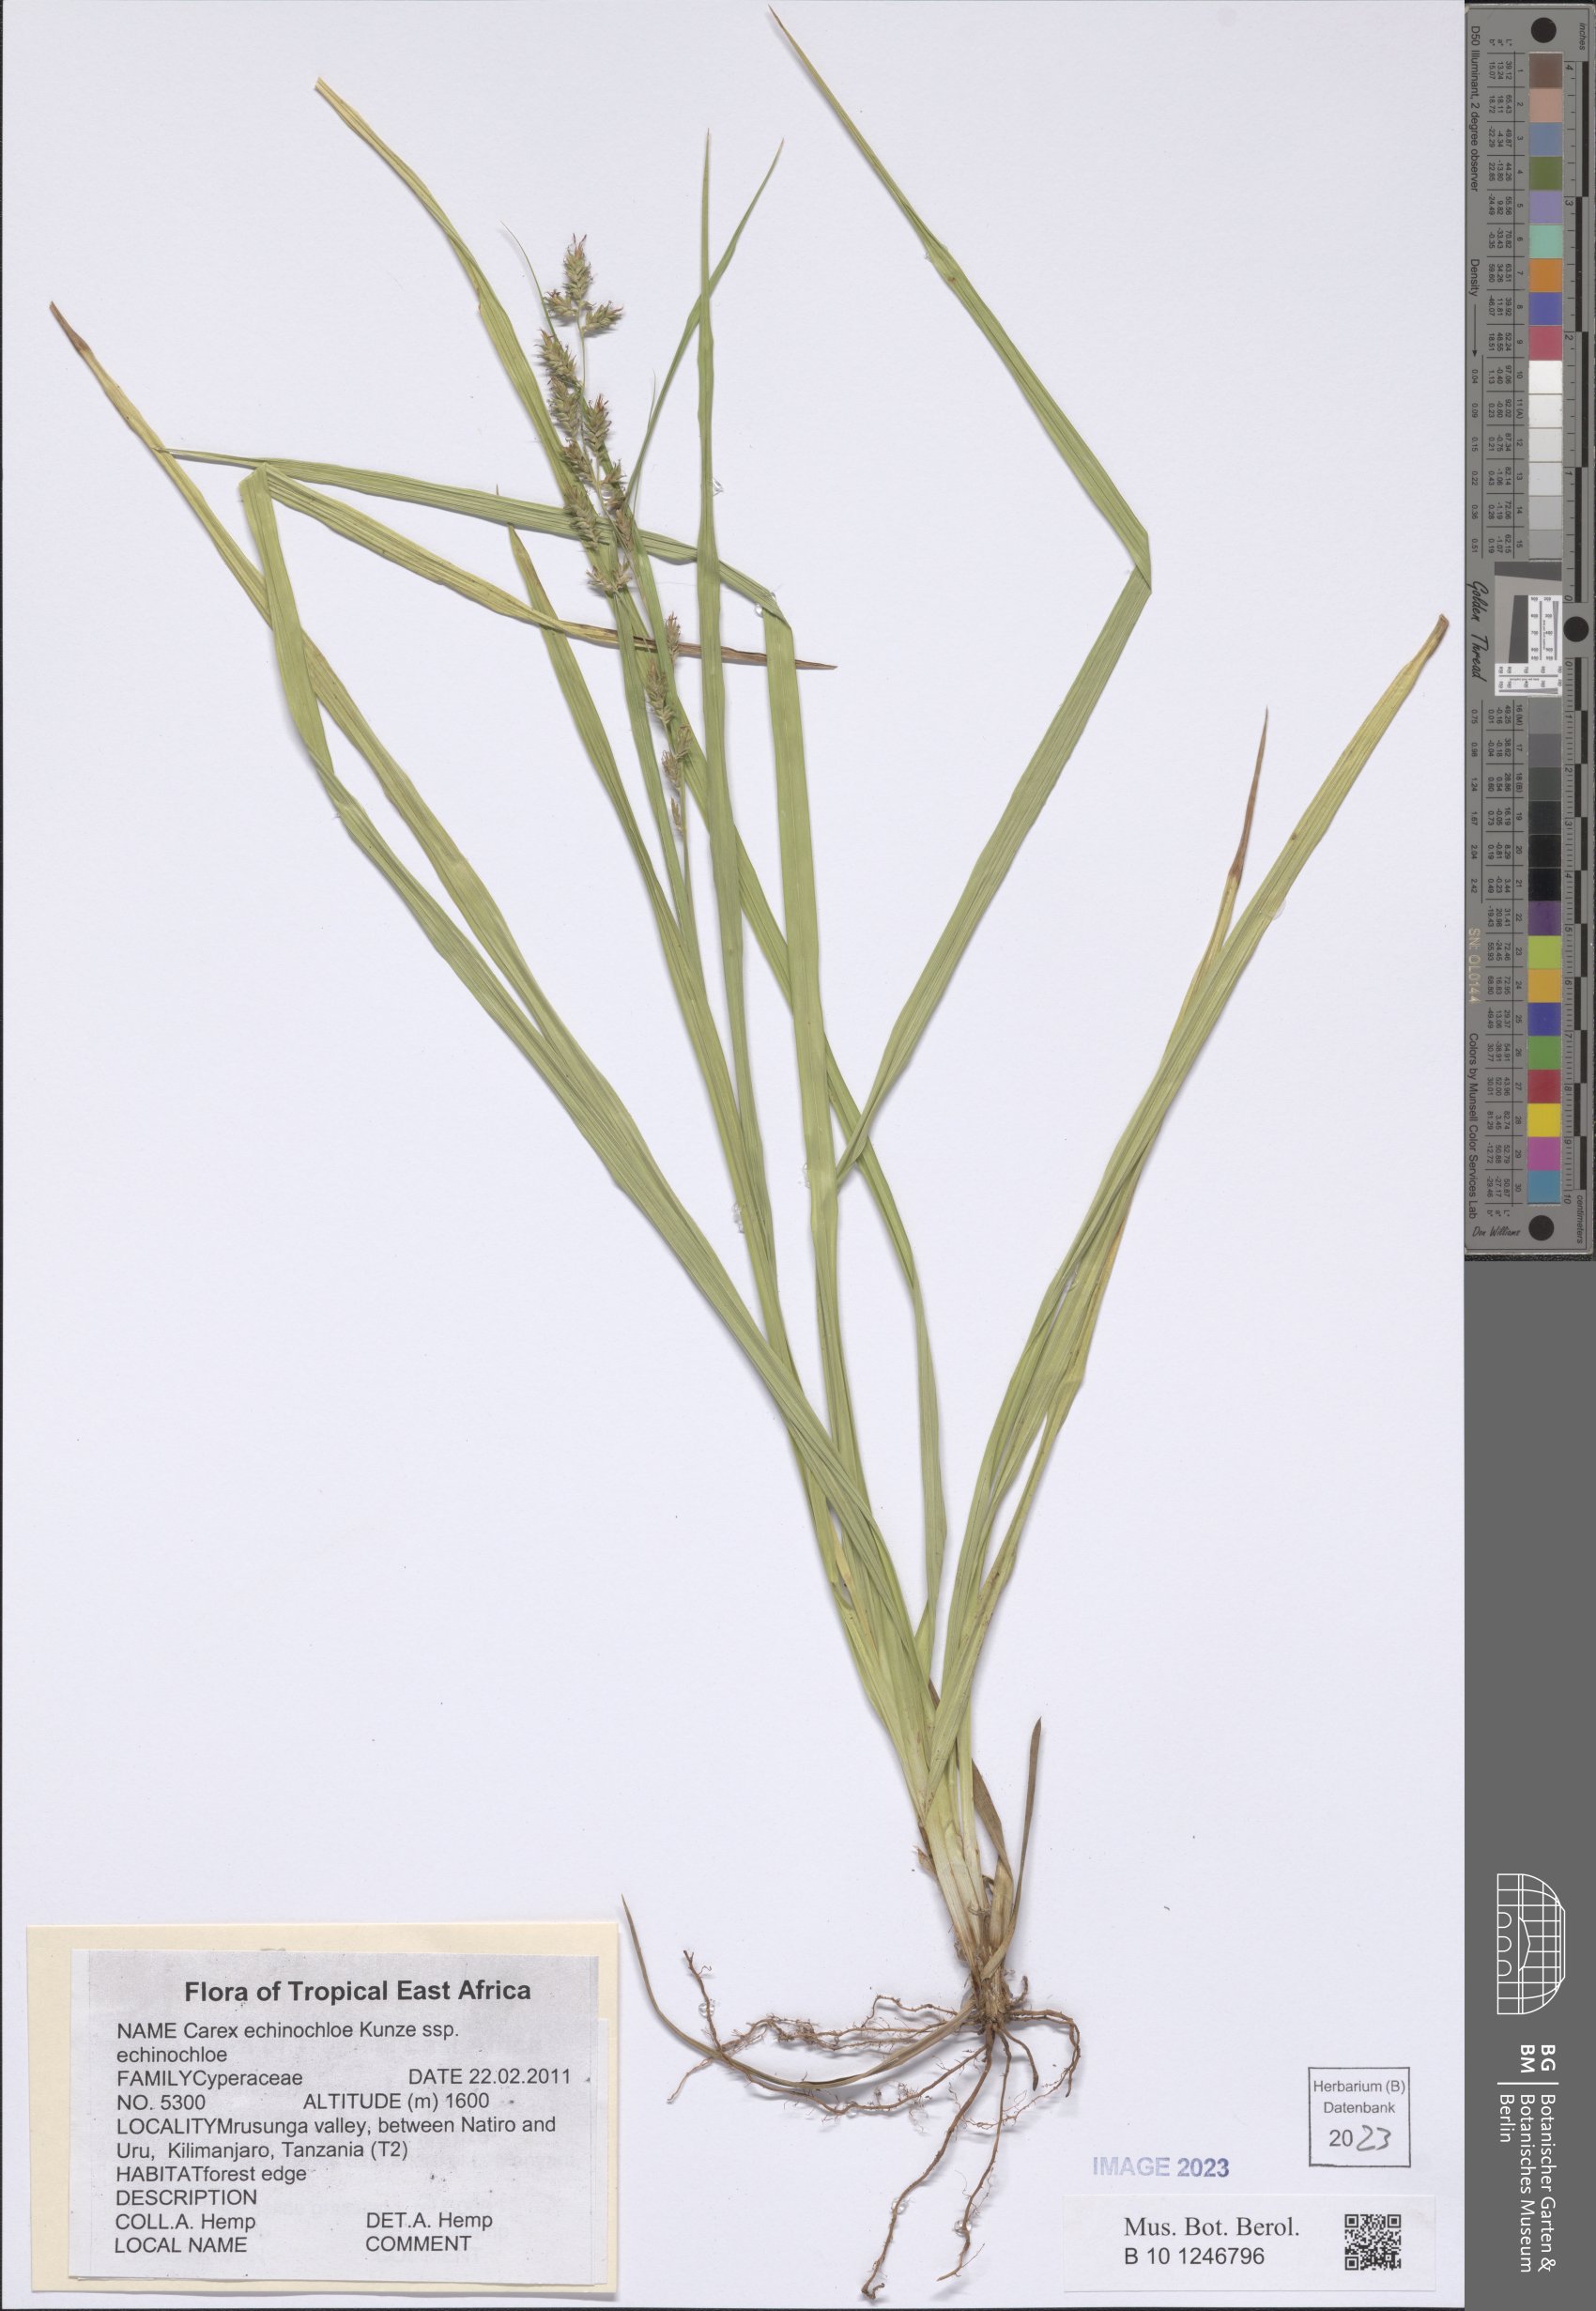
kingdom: Plantae
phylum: Tracheophyta
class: Liliopsida
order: Poales
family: Cyperaceae
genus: Carex
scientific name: Carex echinochloe
